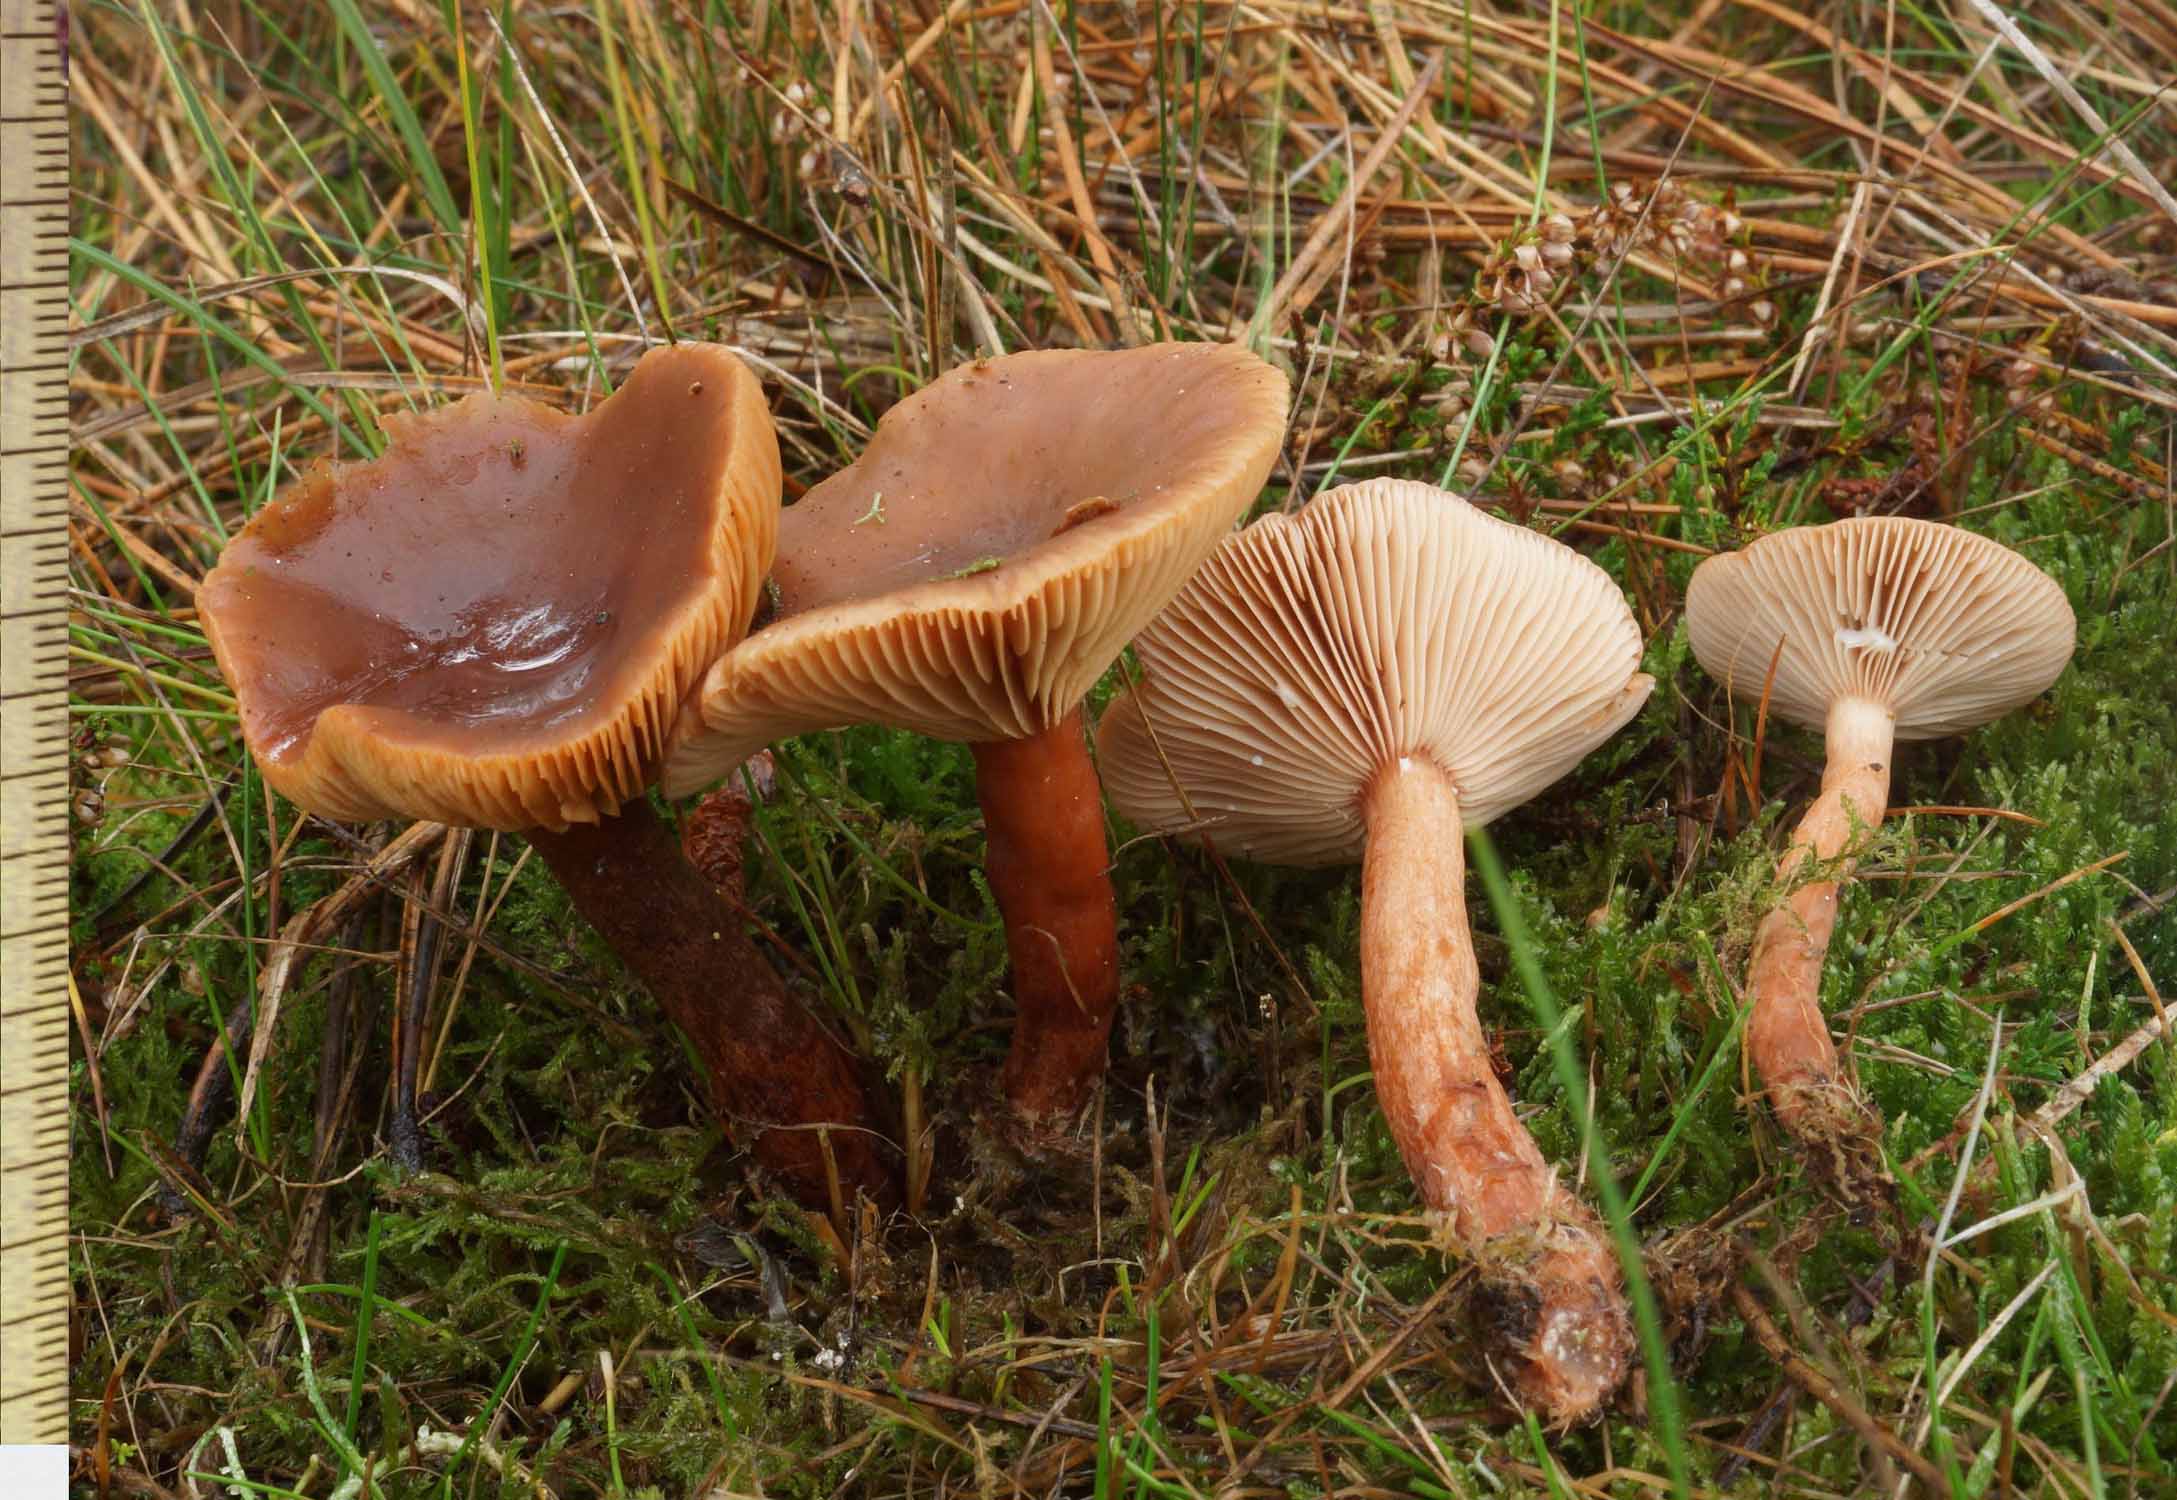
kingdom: Fungi
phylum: Basidiomycota
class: Agaricomycetes
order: Russulales
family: Russulaceae
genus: Lactarius
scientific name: Lactarius hepaticus
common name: leverbrun mælkehat
